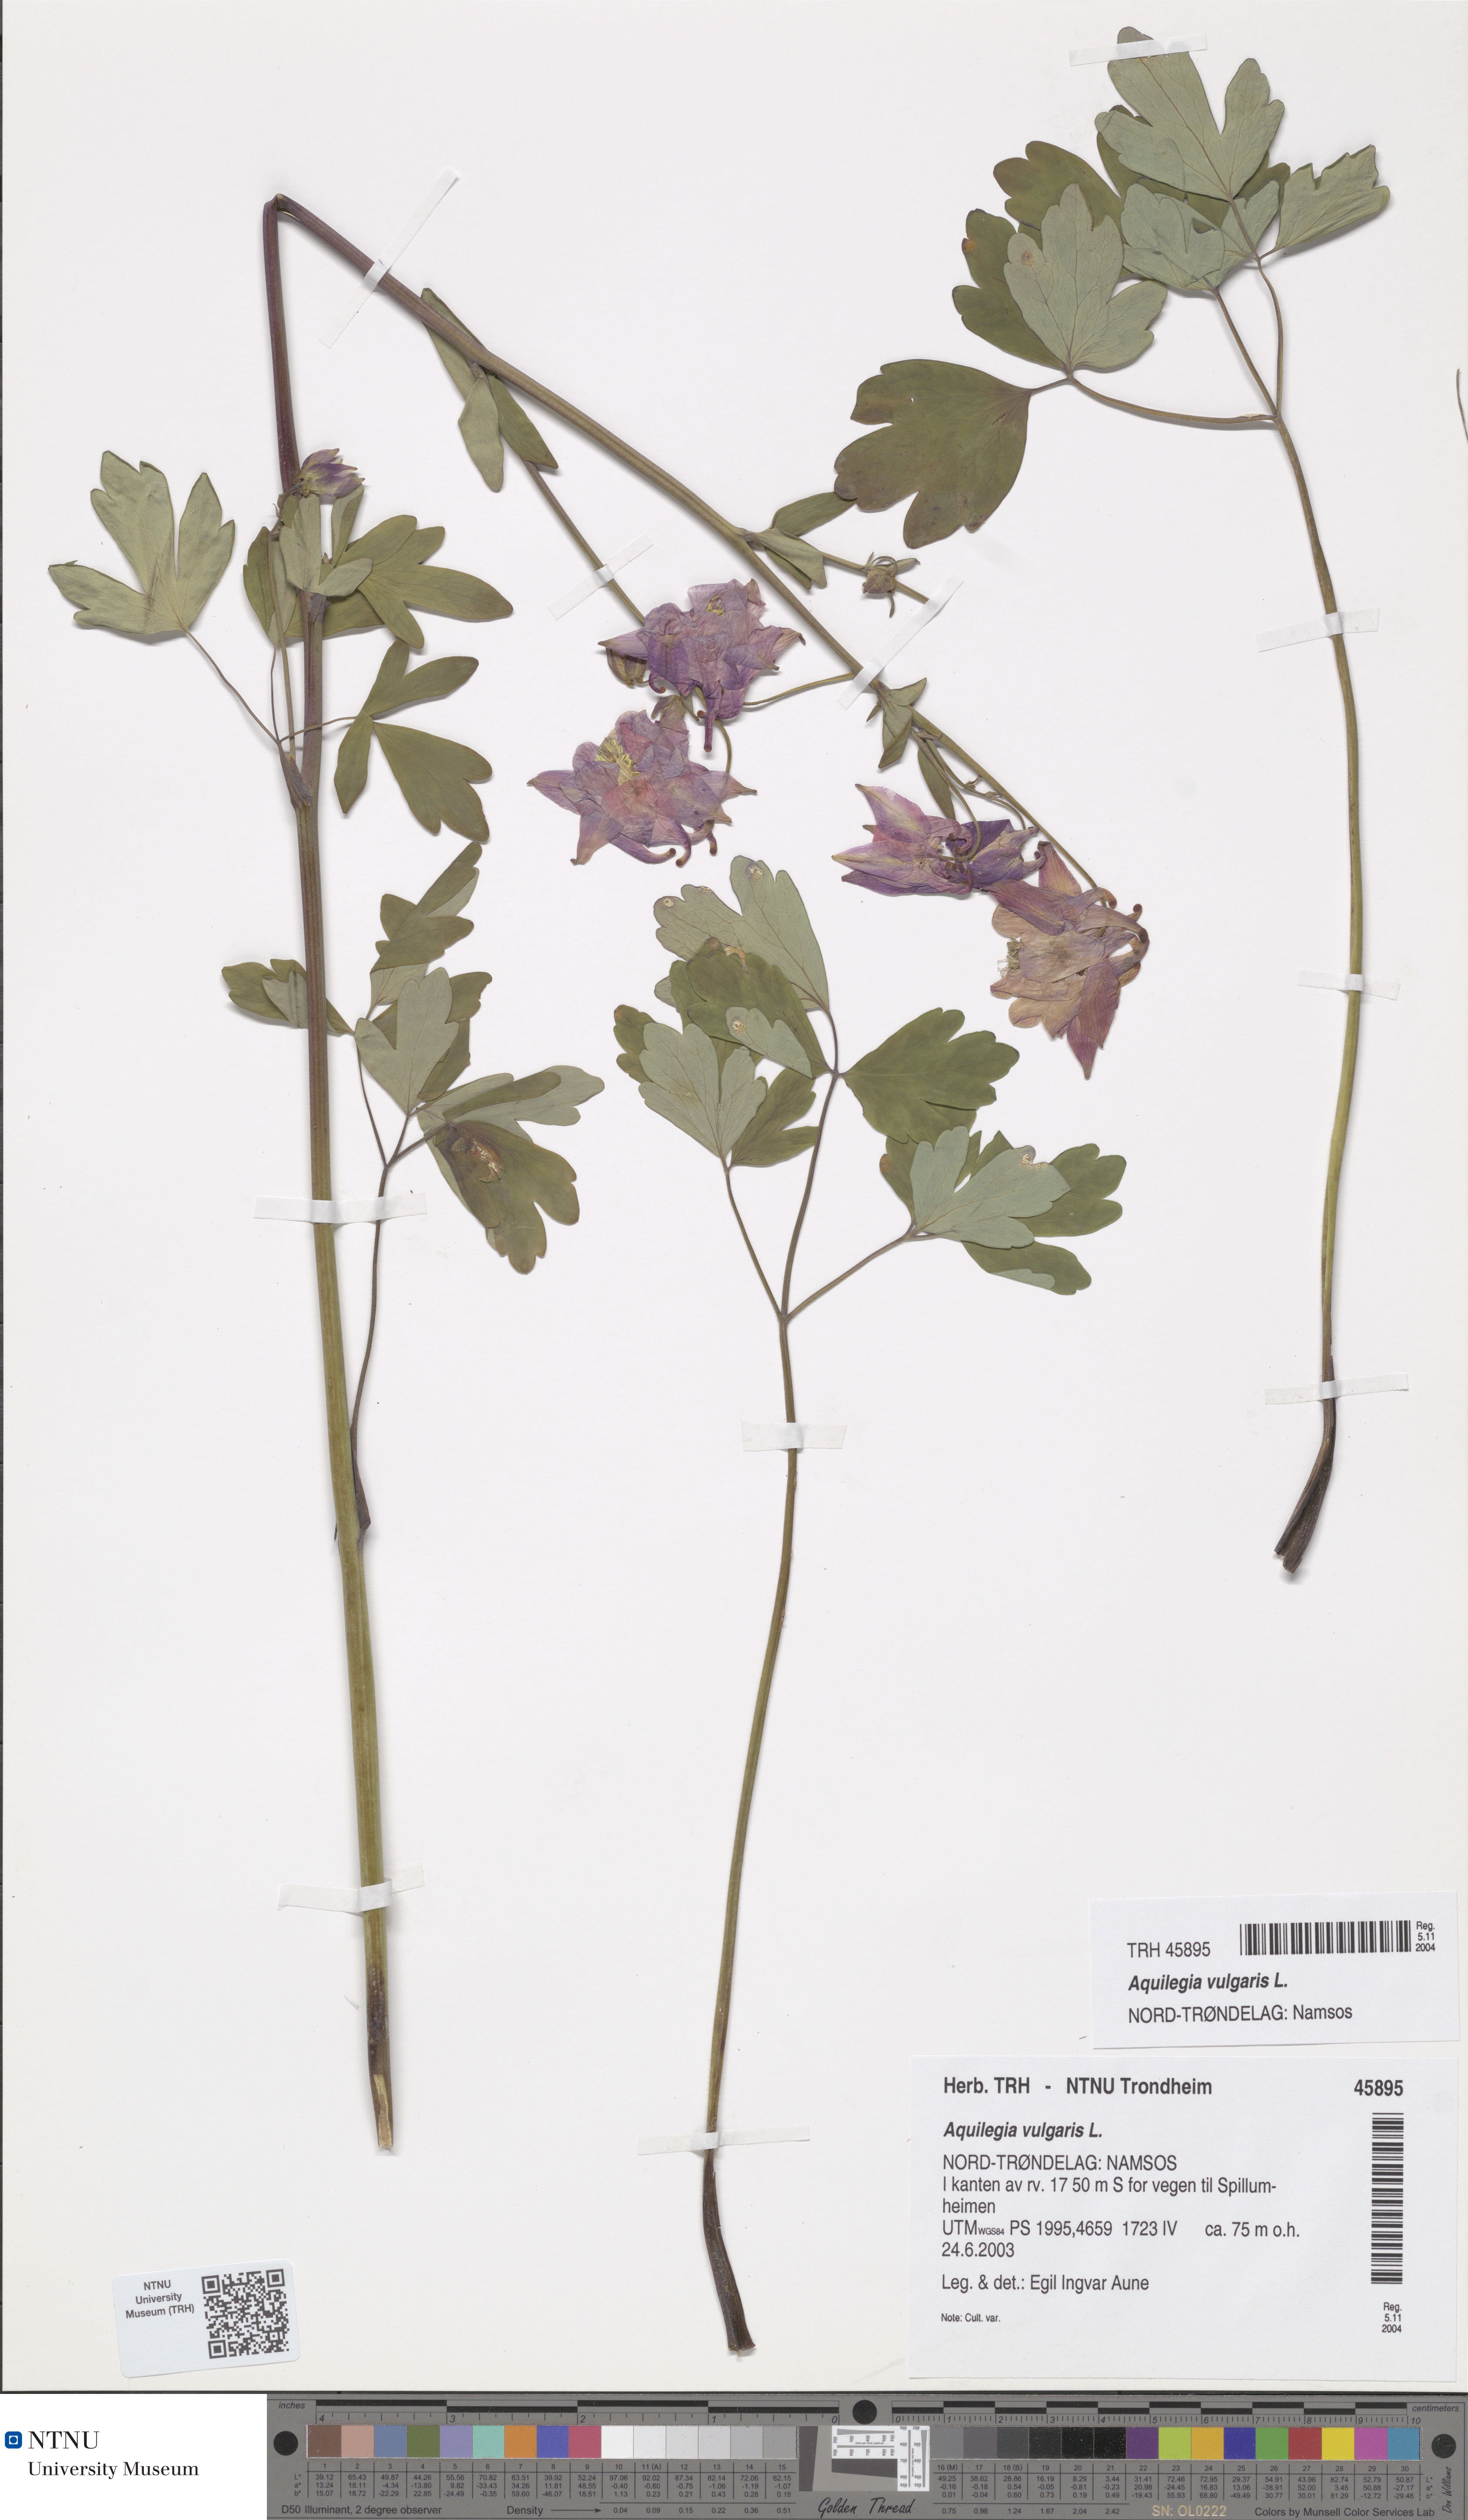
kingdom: Plantae
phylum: Tracheophyta
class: Magnoliopsida
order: Ranunculales
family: Ranunculaceae
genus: Aquilegia
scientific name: Aquilegia vulgaris
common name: Columbine
